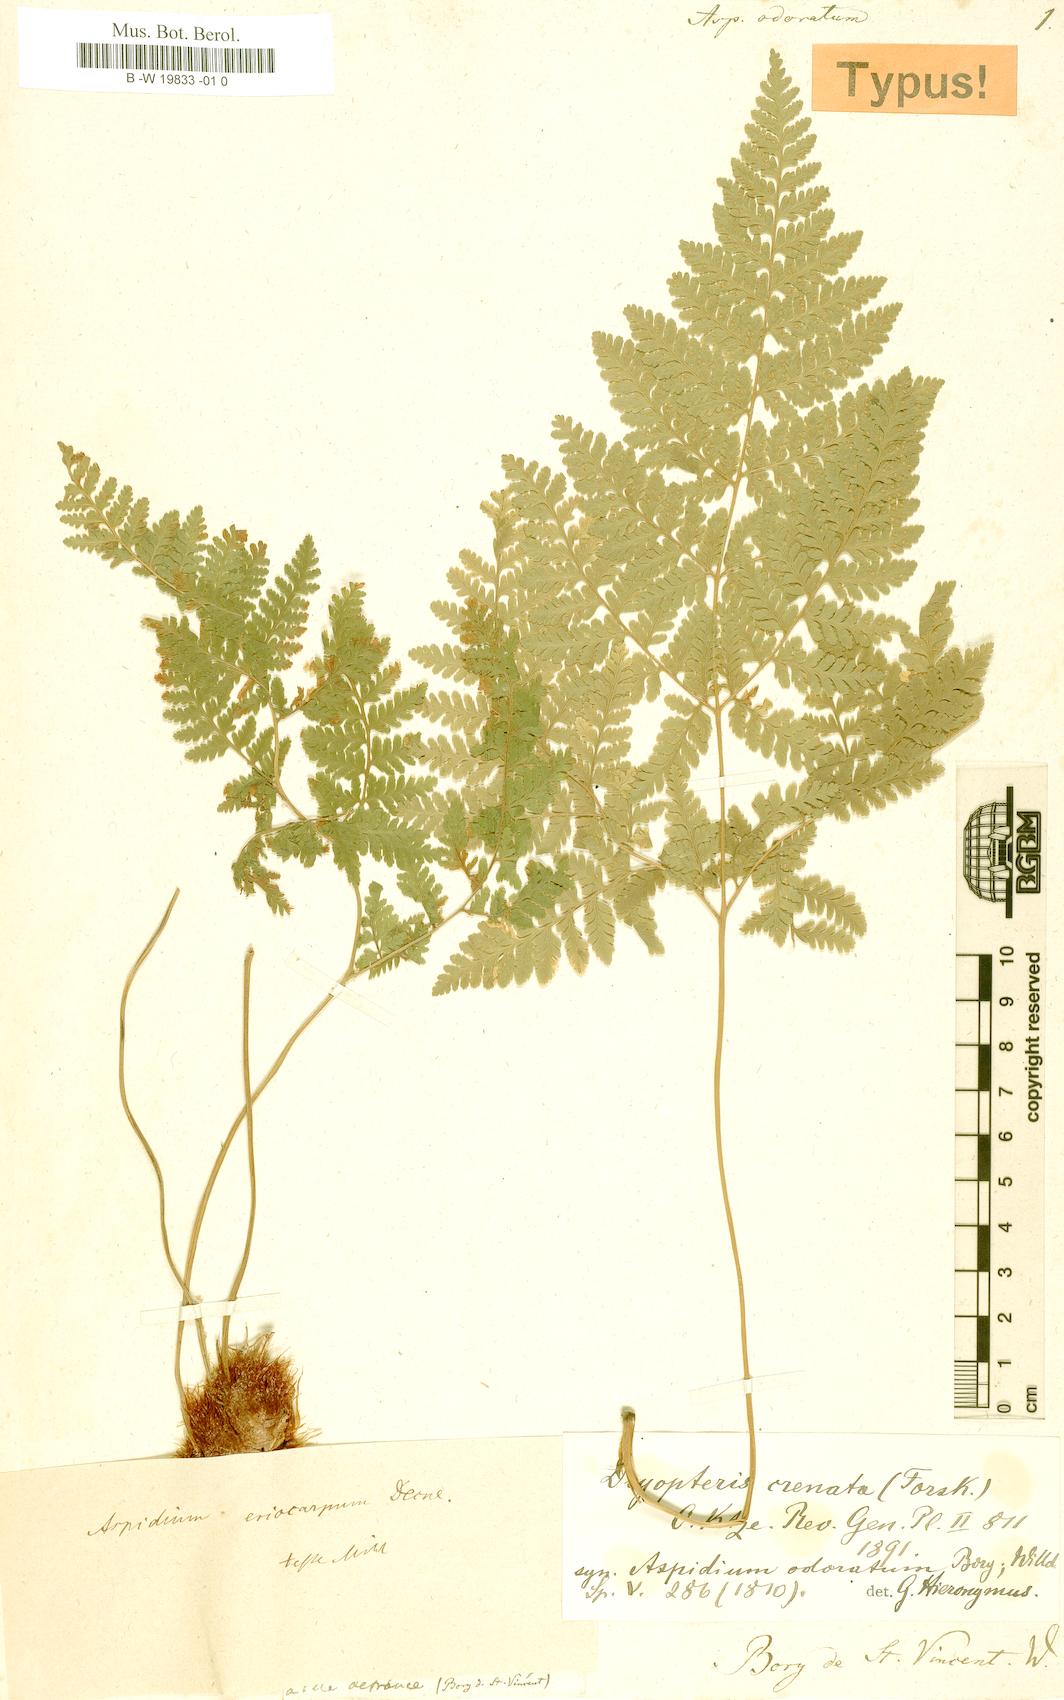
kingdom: Plantae
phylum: Tracheophyta
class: Polypodiopsida
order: Polypodiales
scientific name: Polypodiales
